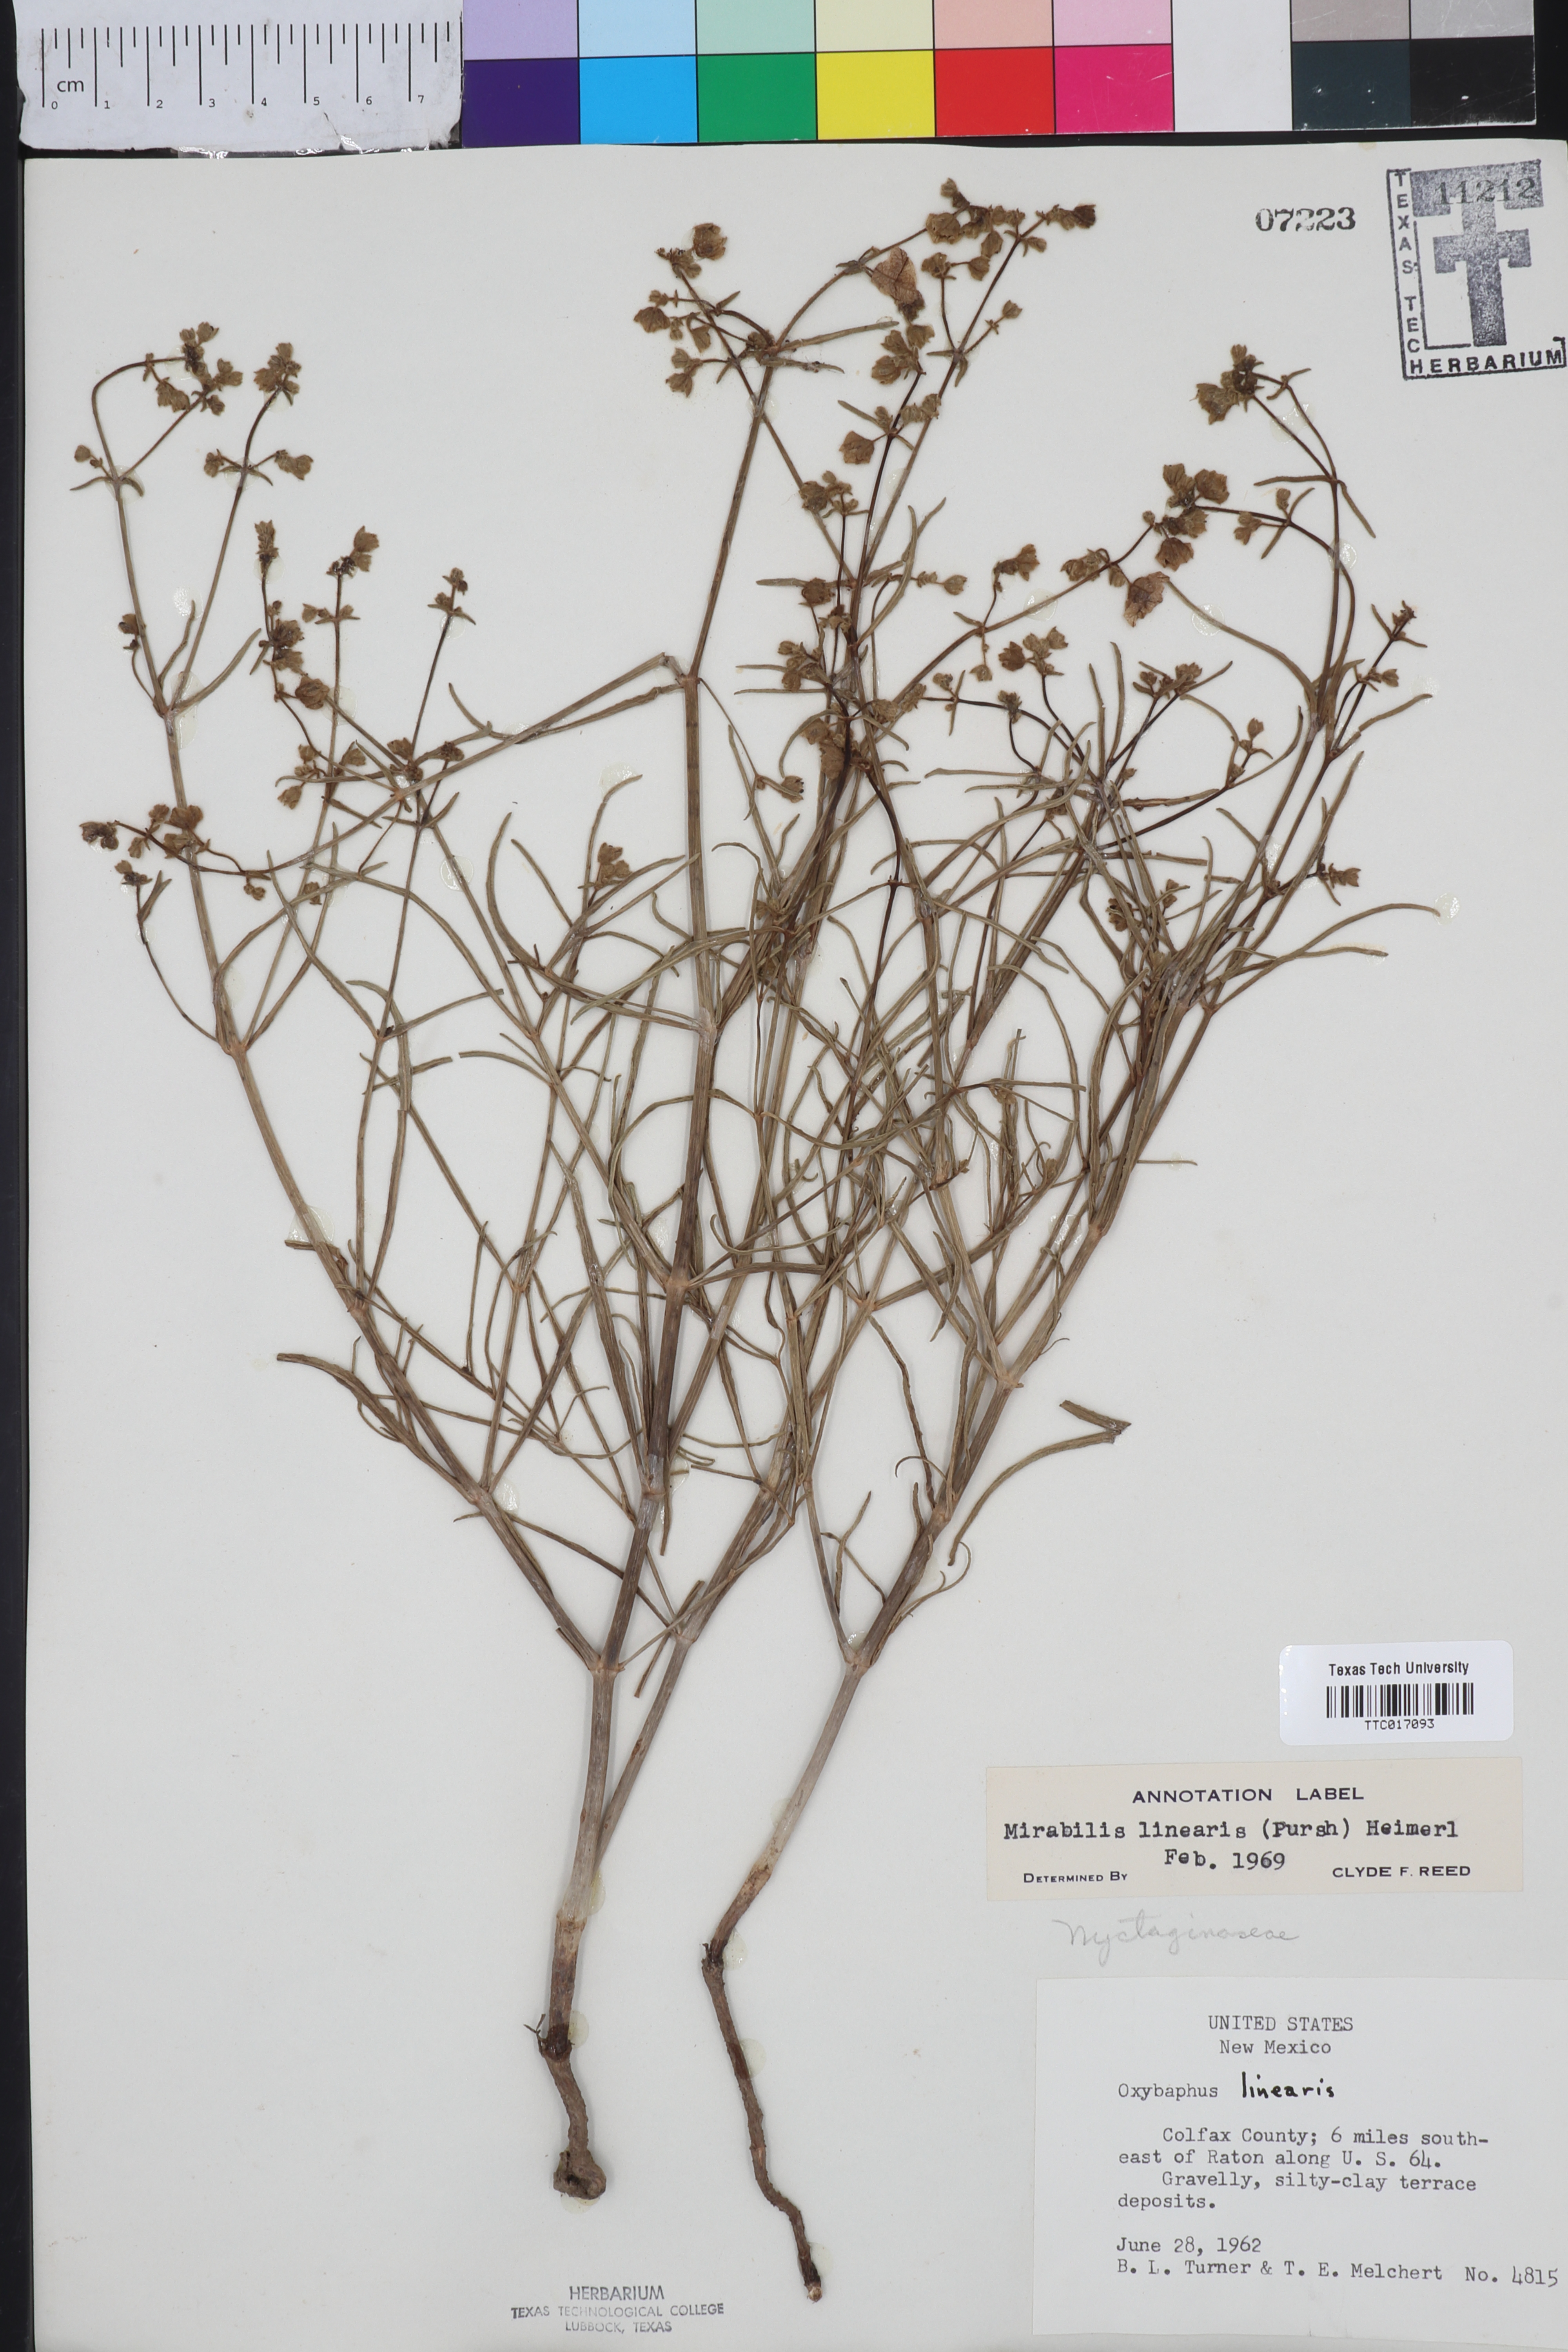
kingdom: Plantae
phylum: Tracheophyta
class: Magnoliopsida
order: Caryophyllales
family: Nyctaginaceae
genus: Mirabilis
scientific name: Mirabilis linearis
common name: Linear-leaved four-o'clock
